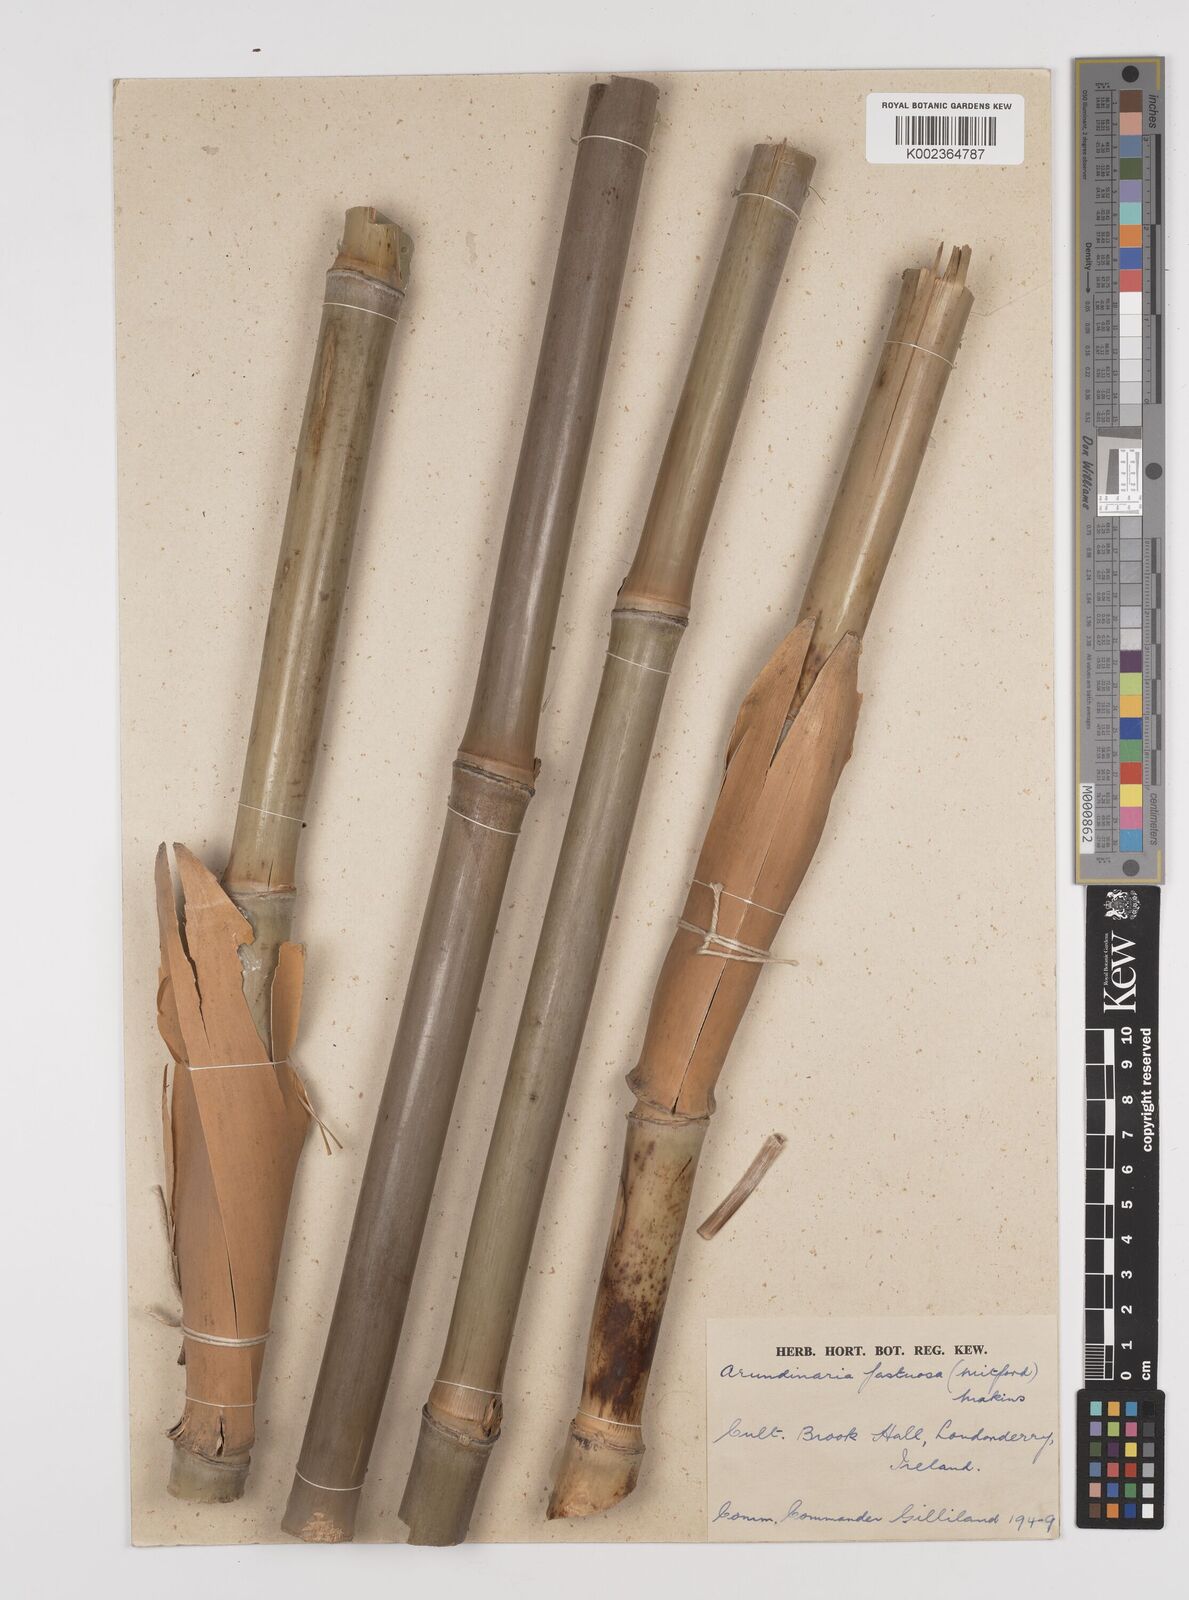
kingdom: Plantae
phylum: Tracheophyta
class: Liliopsida
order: Poales
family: Poaceae
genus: Semiarundinaria
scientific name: Semiarundinaria fastuosa
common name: Narihira bamboo
